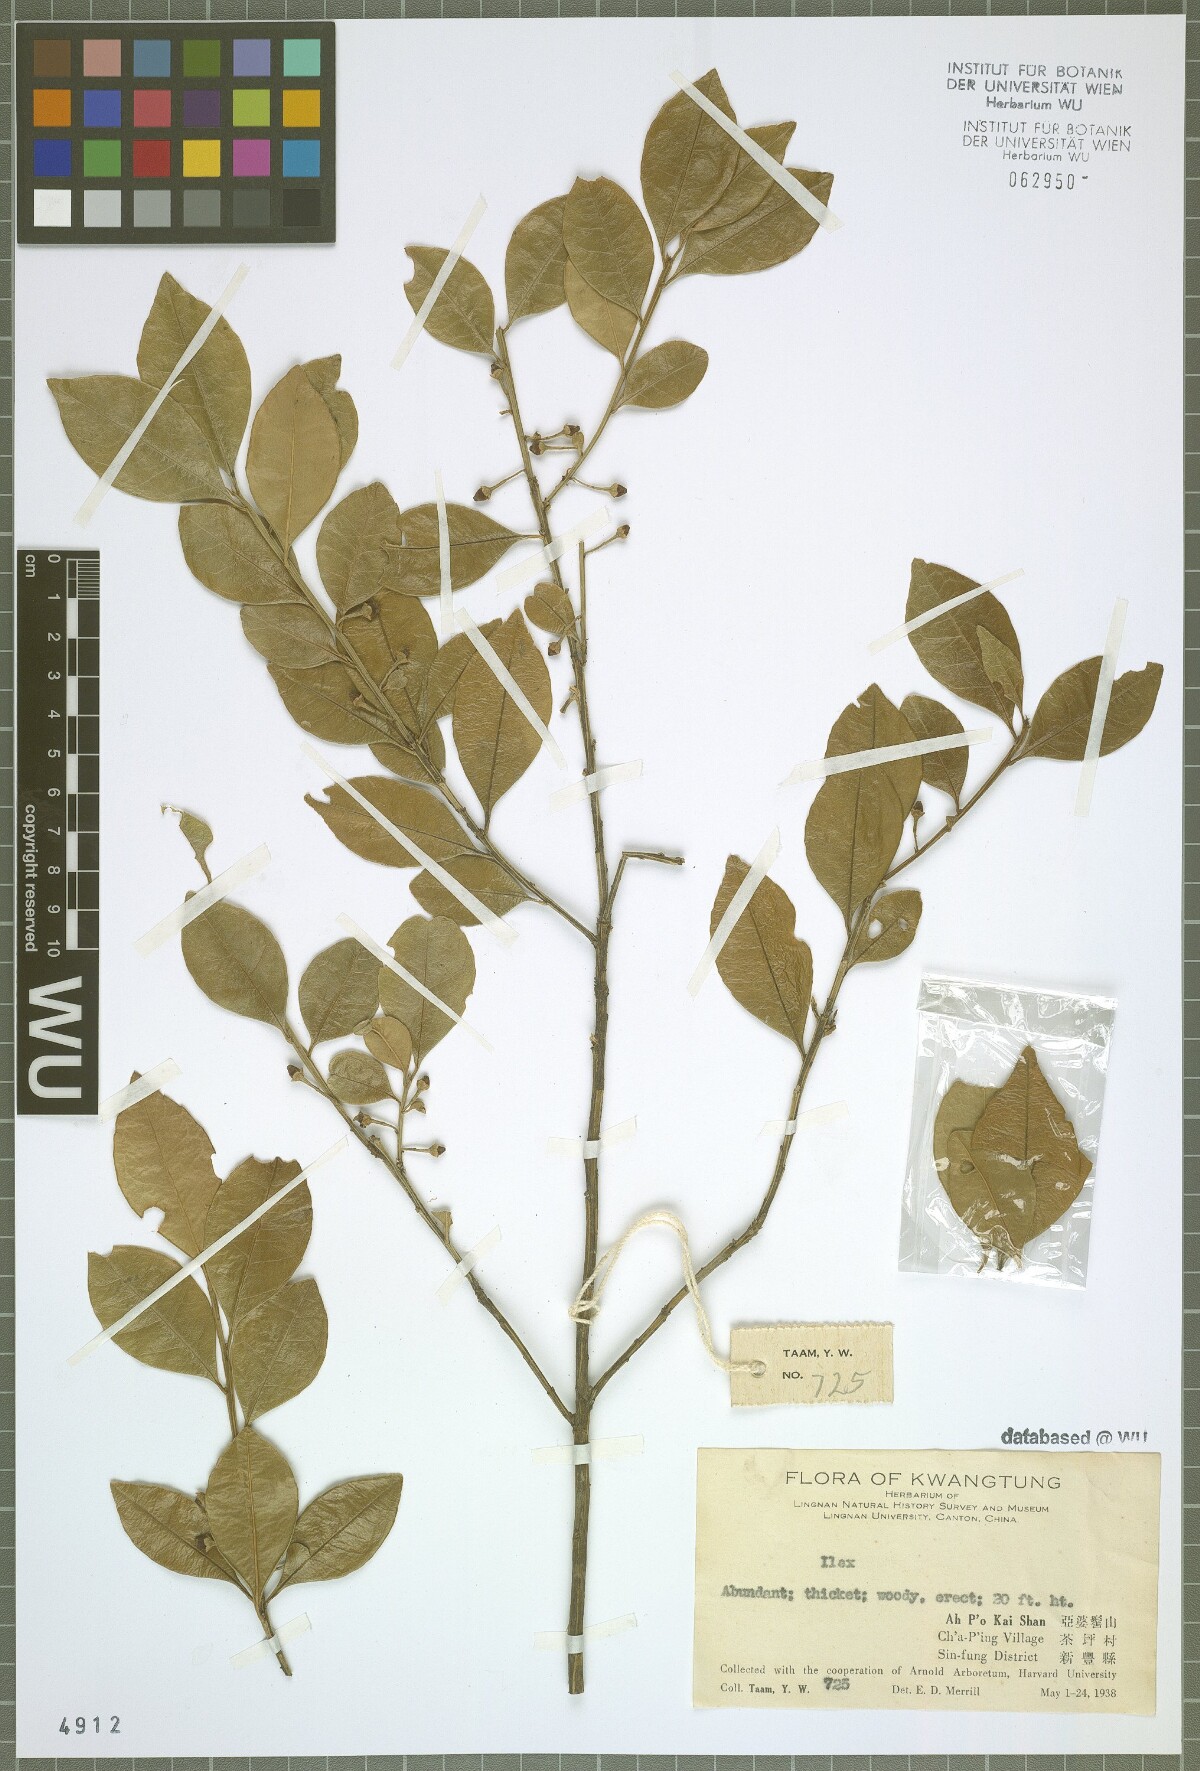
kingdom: Plantae
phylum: Tracheophyta
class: Magnoliopsida
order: Aquifoliales
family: Aquifoliaceae
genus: Ilex
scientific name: Ilex
